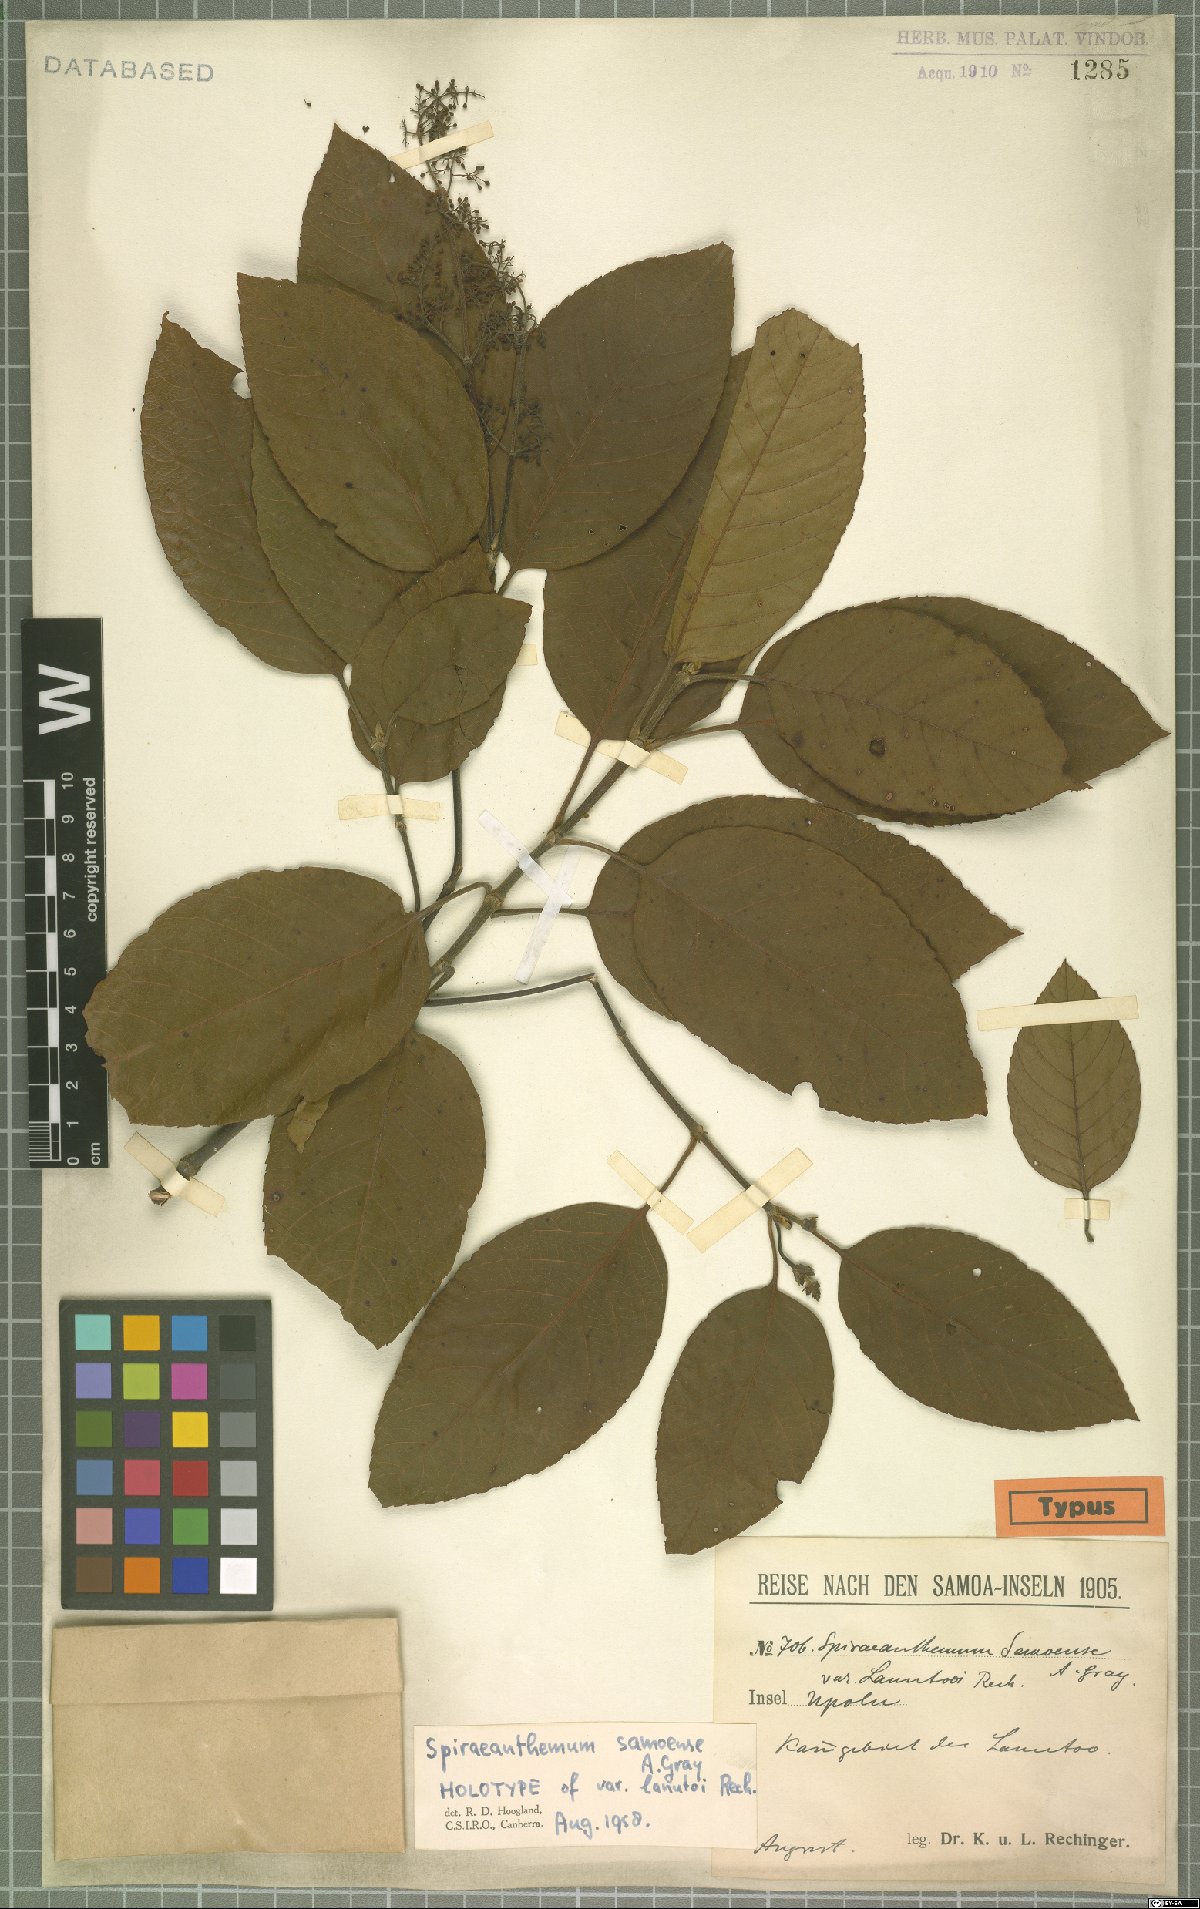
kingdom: Plantae
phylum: Tracheophyta
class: Magnoliopsida
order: Oxalidales
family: Cunoniaceae
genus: Spiraeanthemum
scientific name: Spiraeanthemum samoense
